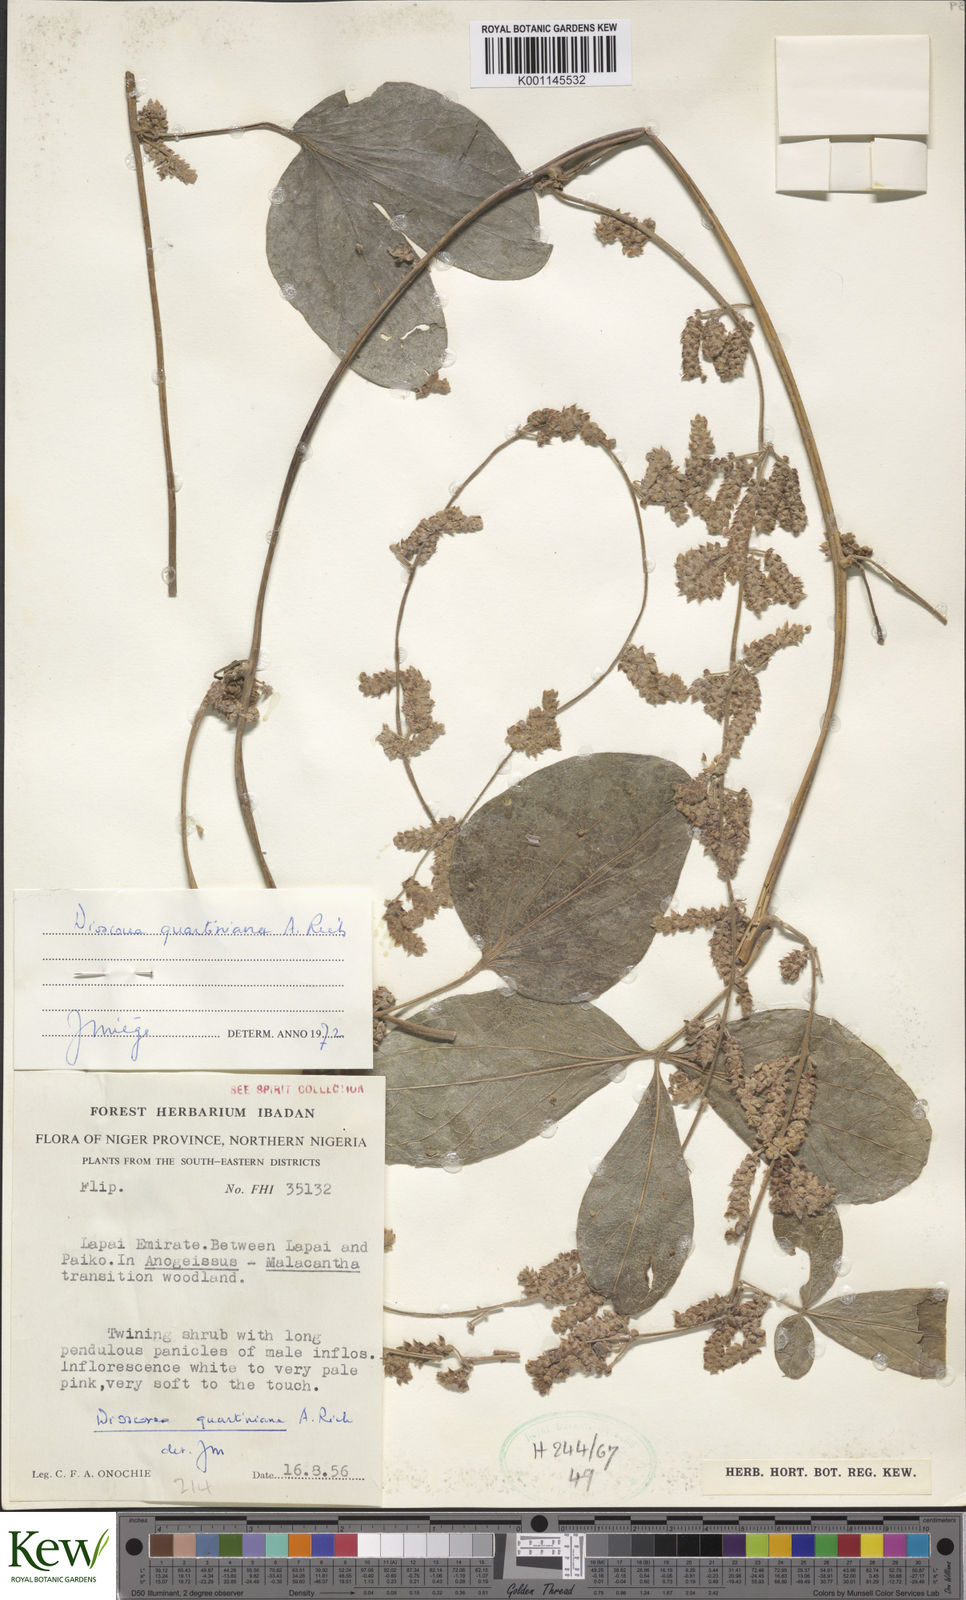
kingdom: Plantae
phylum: Tracheophyta
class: Liliopsida
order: Dioscoreales
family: Dioscoreaceae
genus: Dioscorea
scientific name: Dioscorea quartiniana
